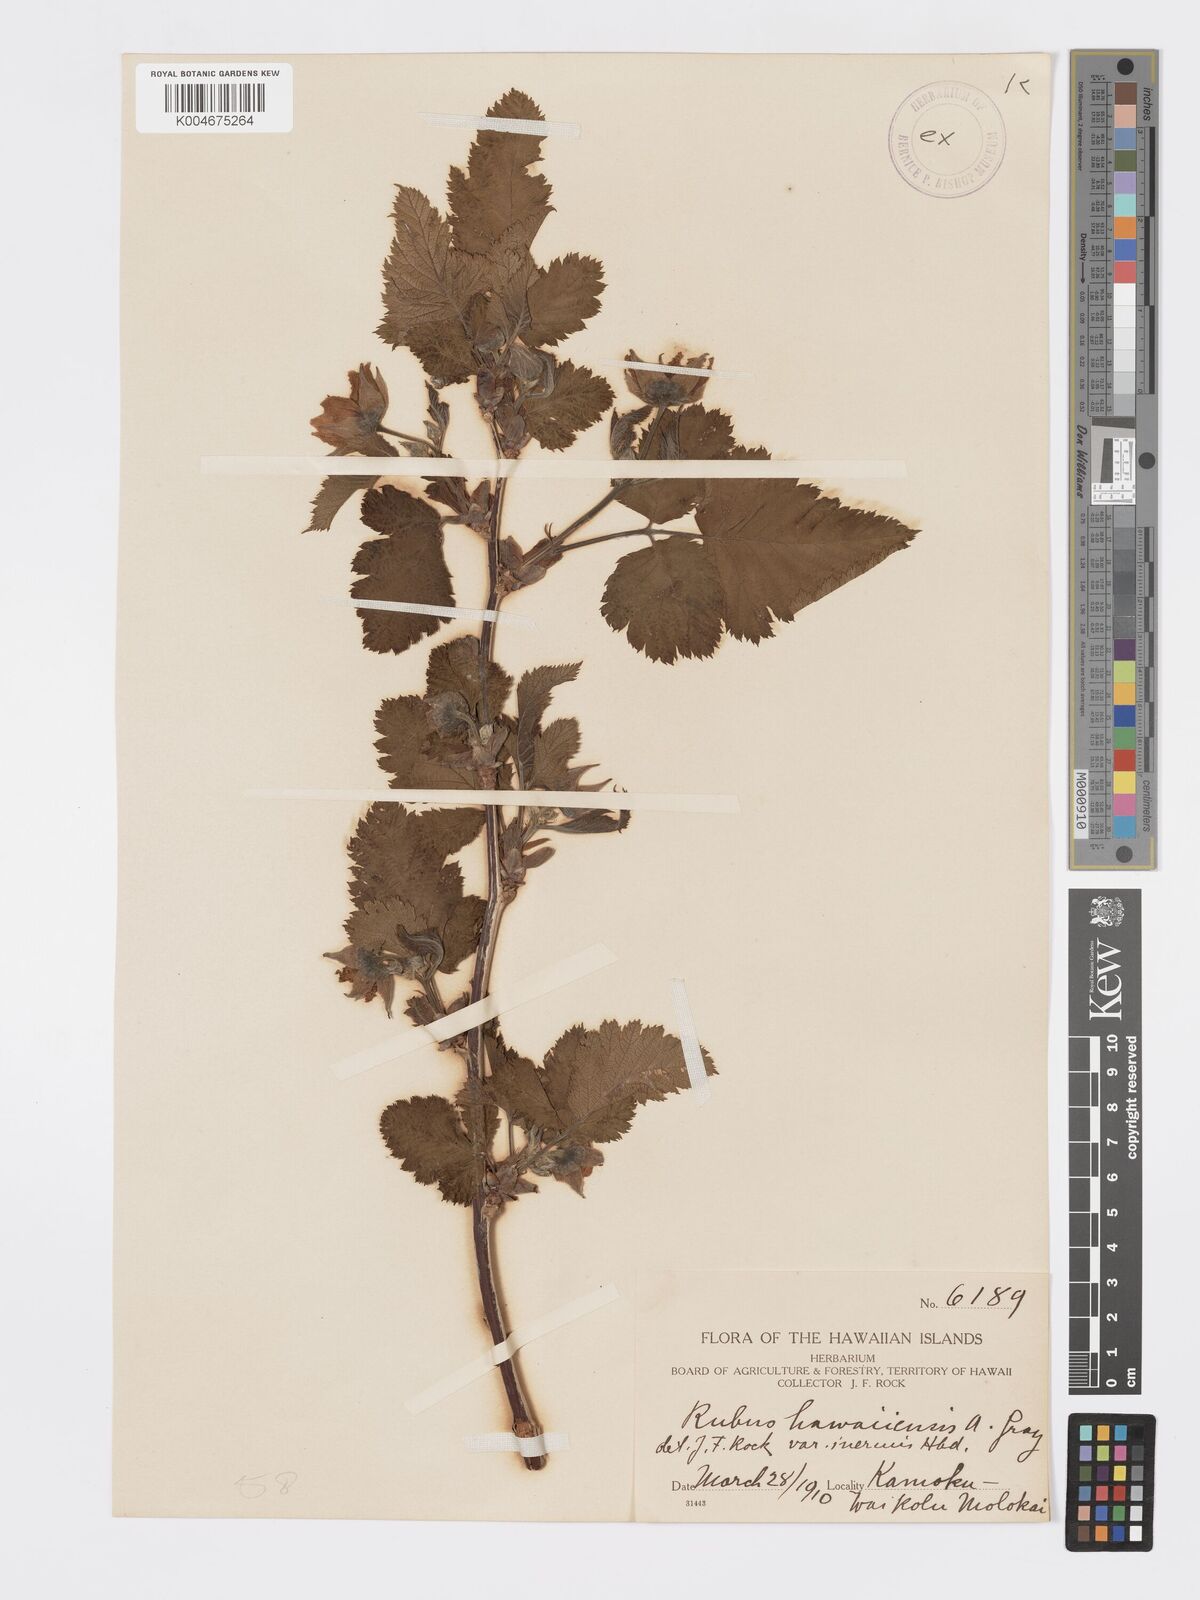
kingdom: Plantae
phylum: Tracheophyta
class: Magnoliopsida
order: Rosales
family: Rosaceae
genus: Rubus
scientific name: Rubus hawaiensis
